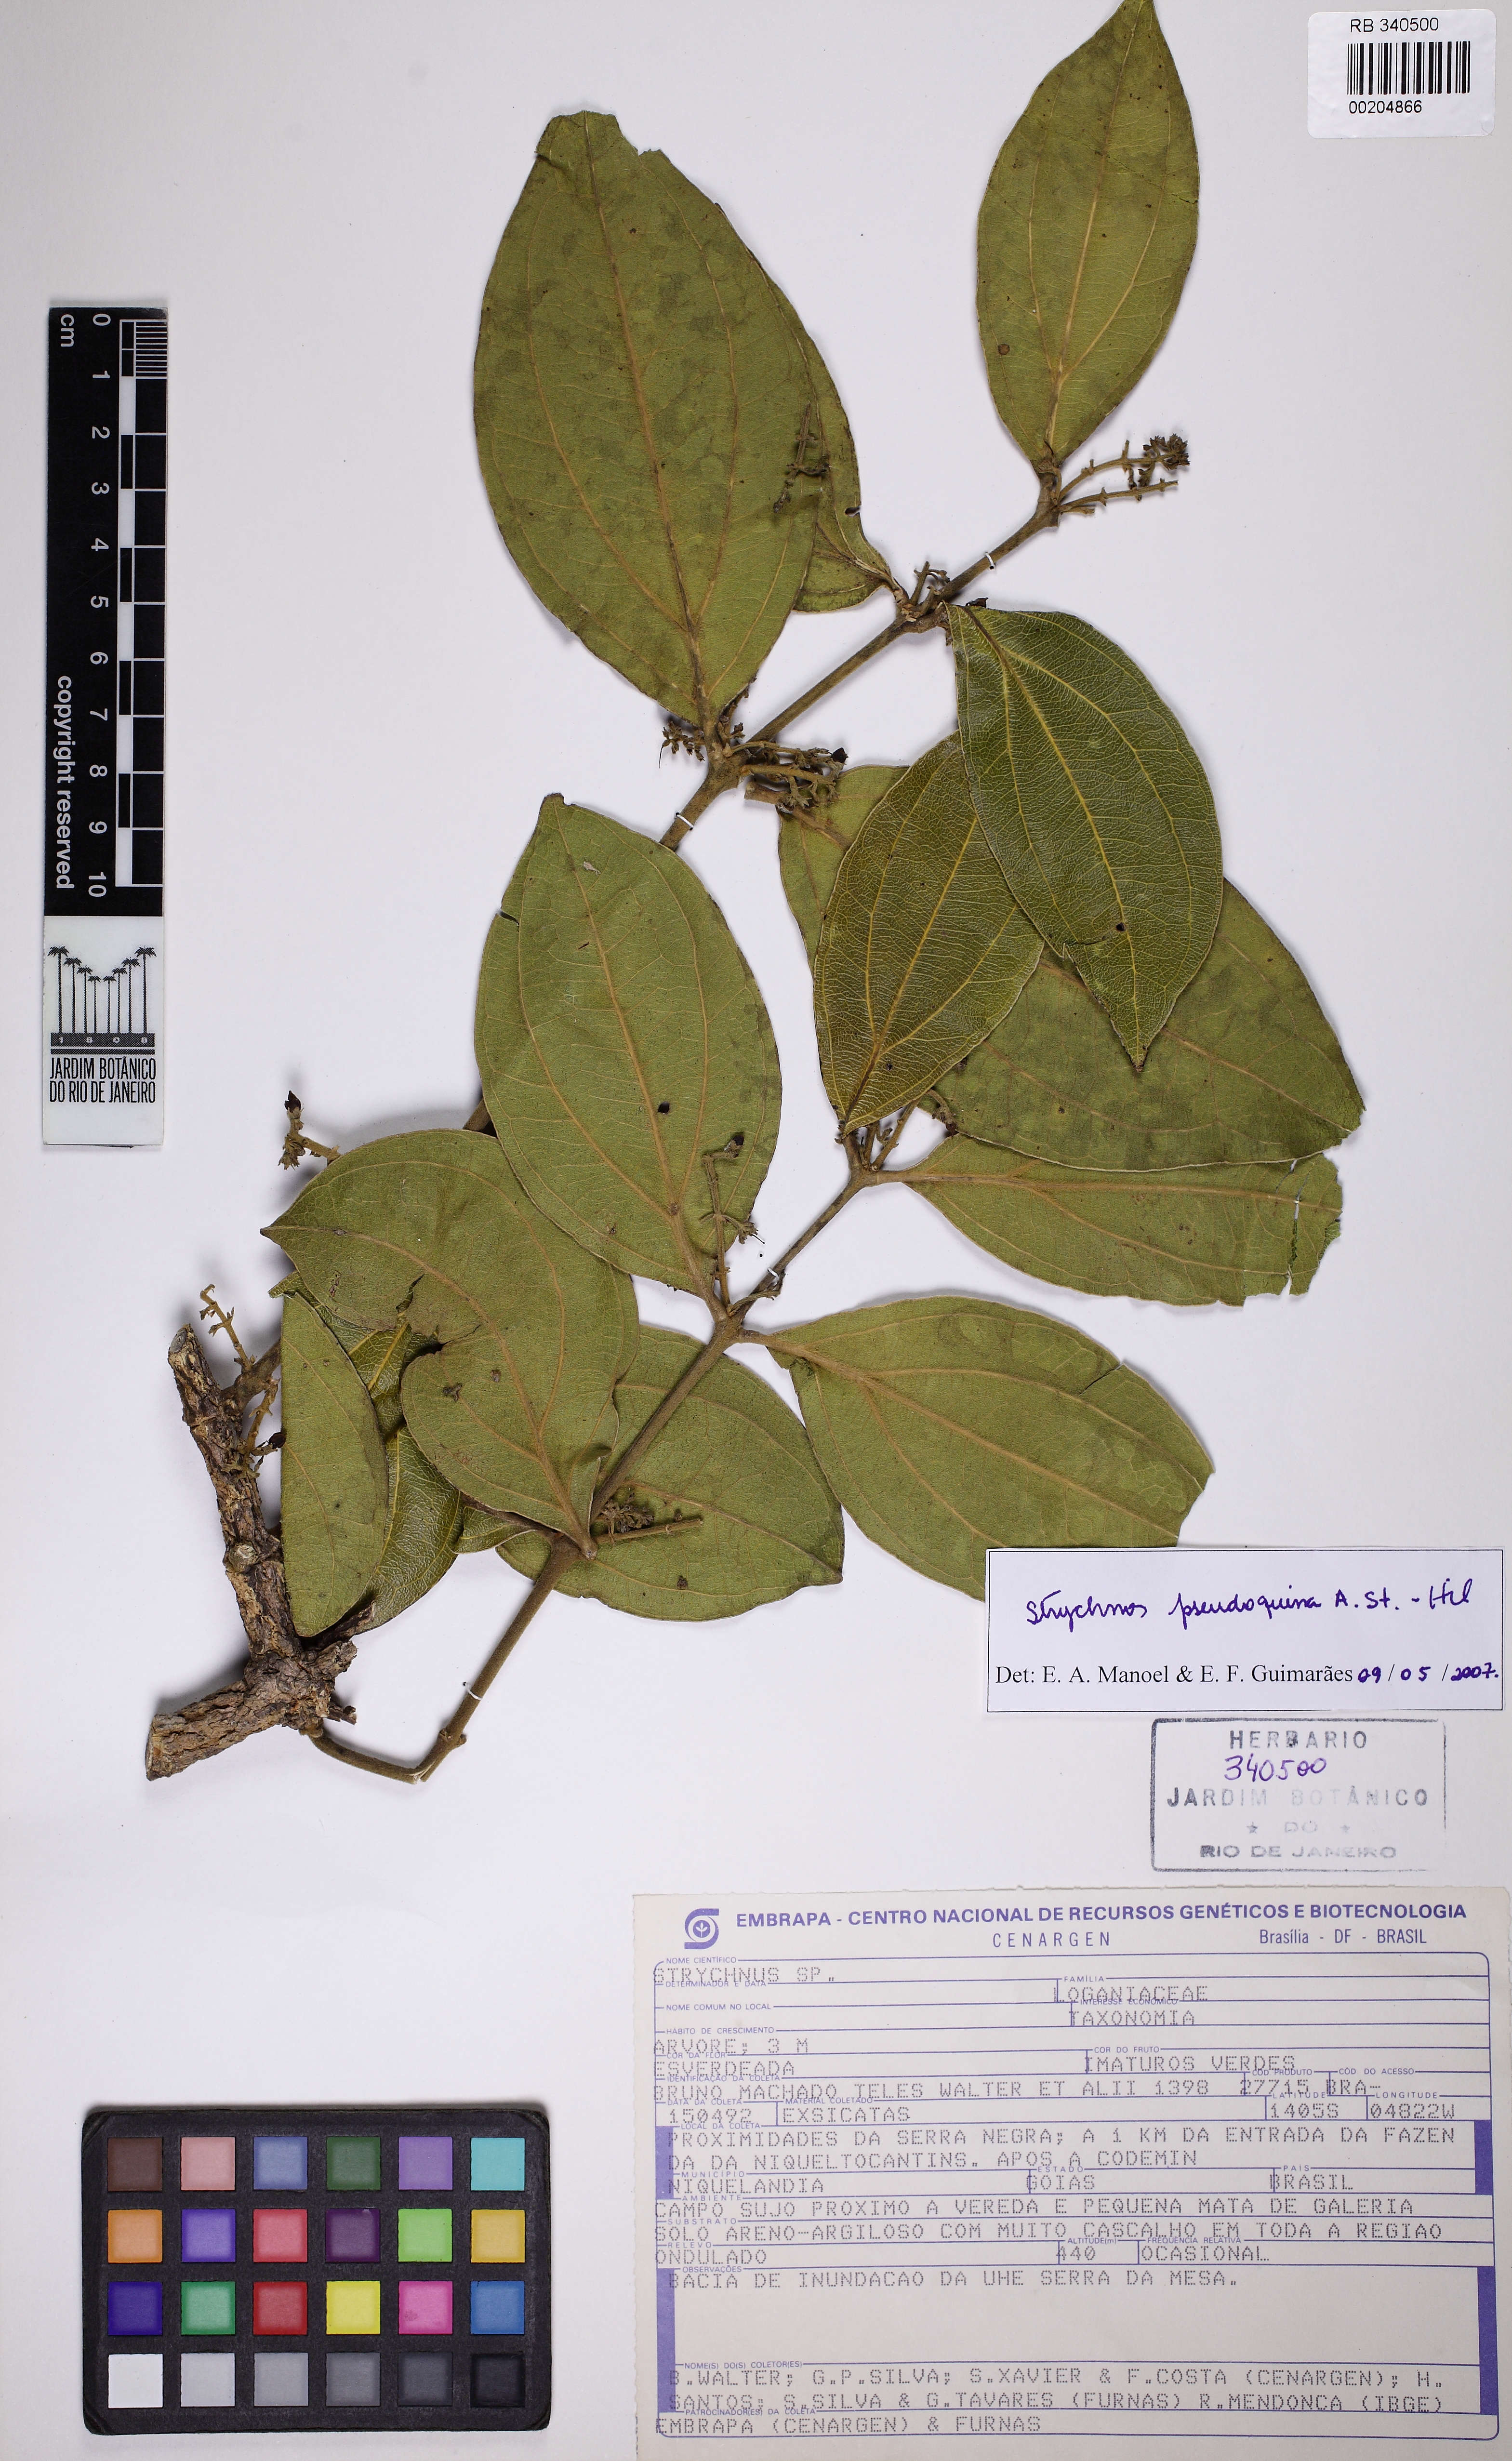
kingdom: Plantae
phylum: Tracheophyta
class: Magnoliopsida
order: Gentianales
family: Loganiaceae
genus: Strychnos
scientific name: Strychnos pseudoquina
